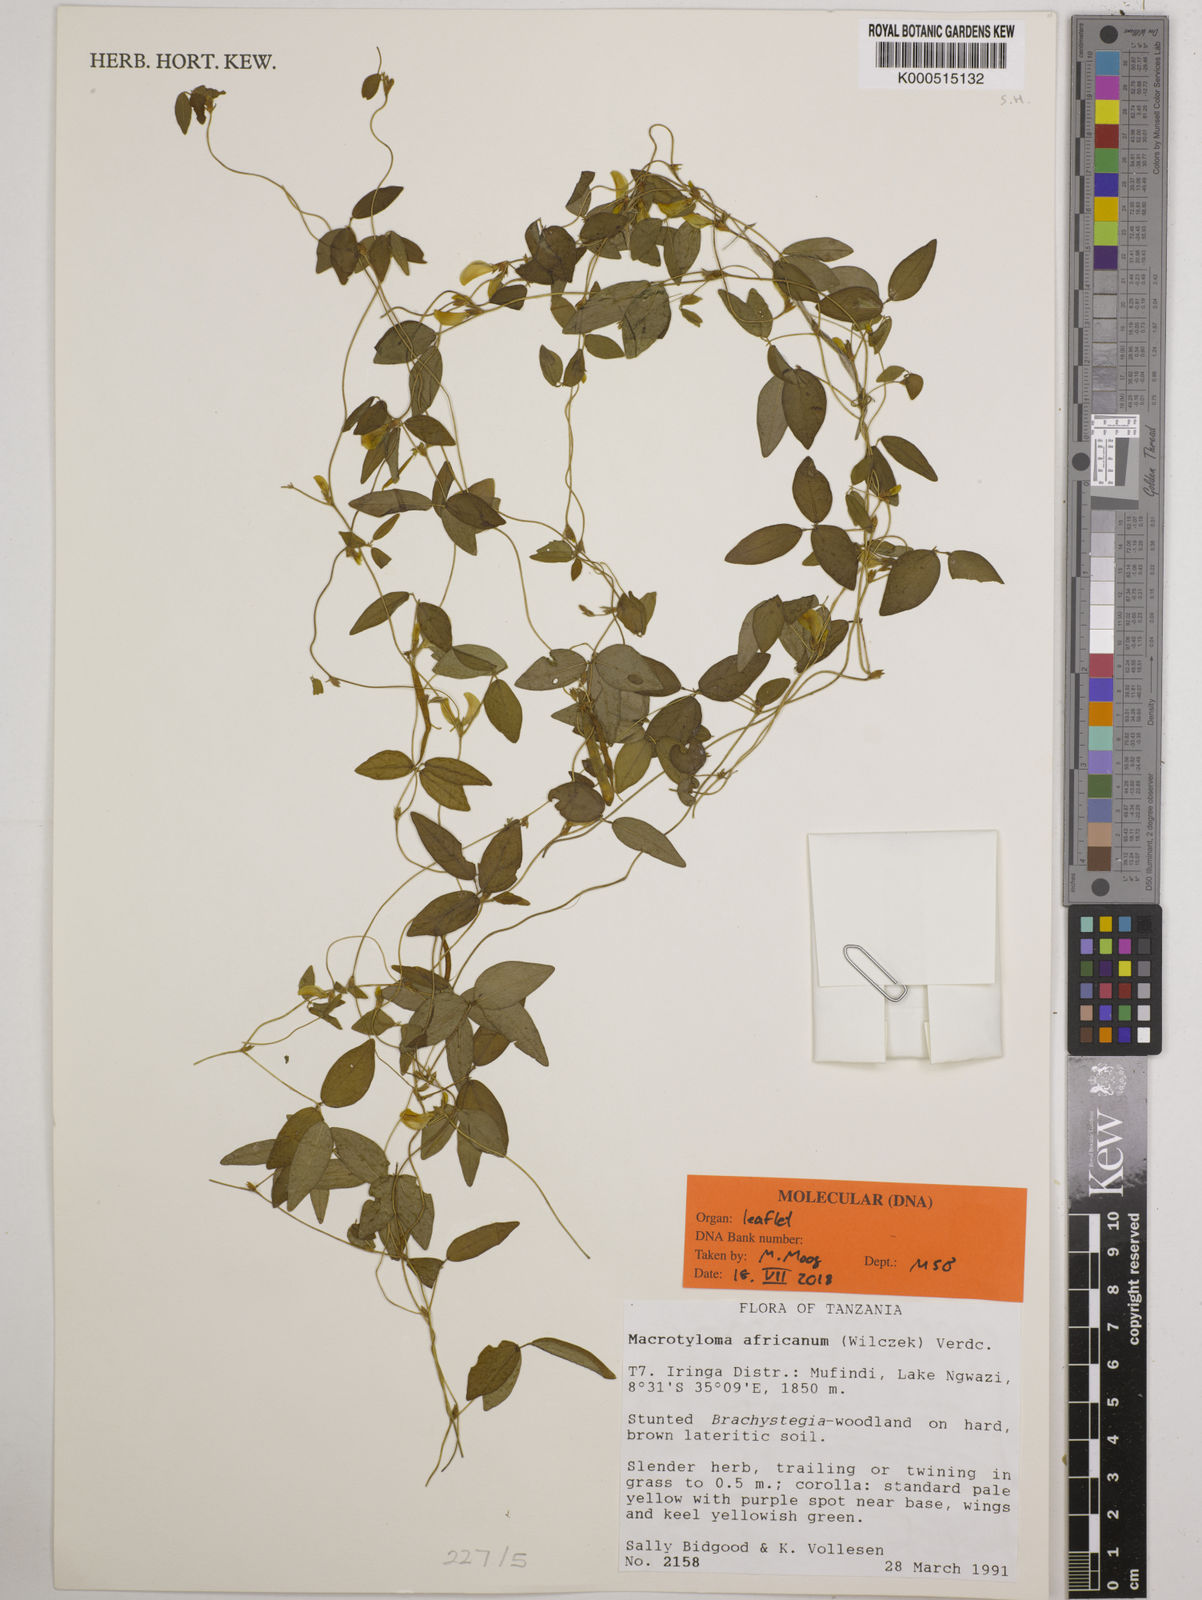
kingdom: Plantae
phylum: Tracheophyta
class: Magnoliopsida
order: Fabales
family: Fabaceae
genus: Macrotyloma
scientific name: Macrotyloma africanum
